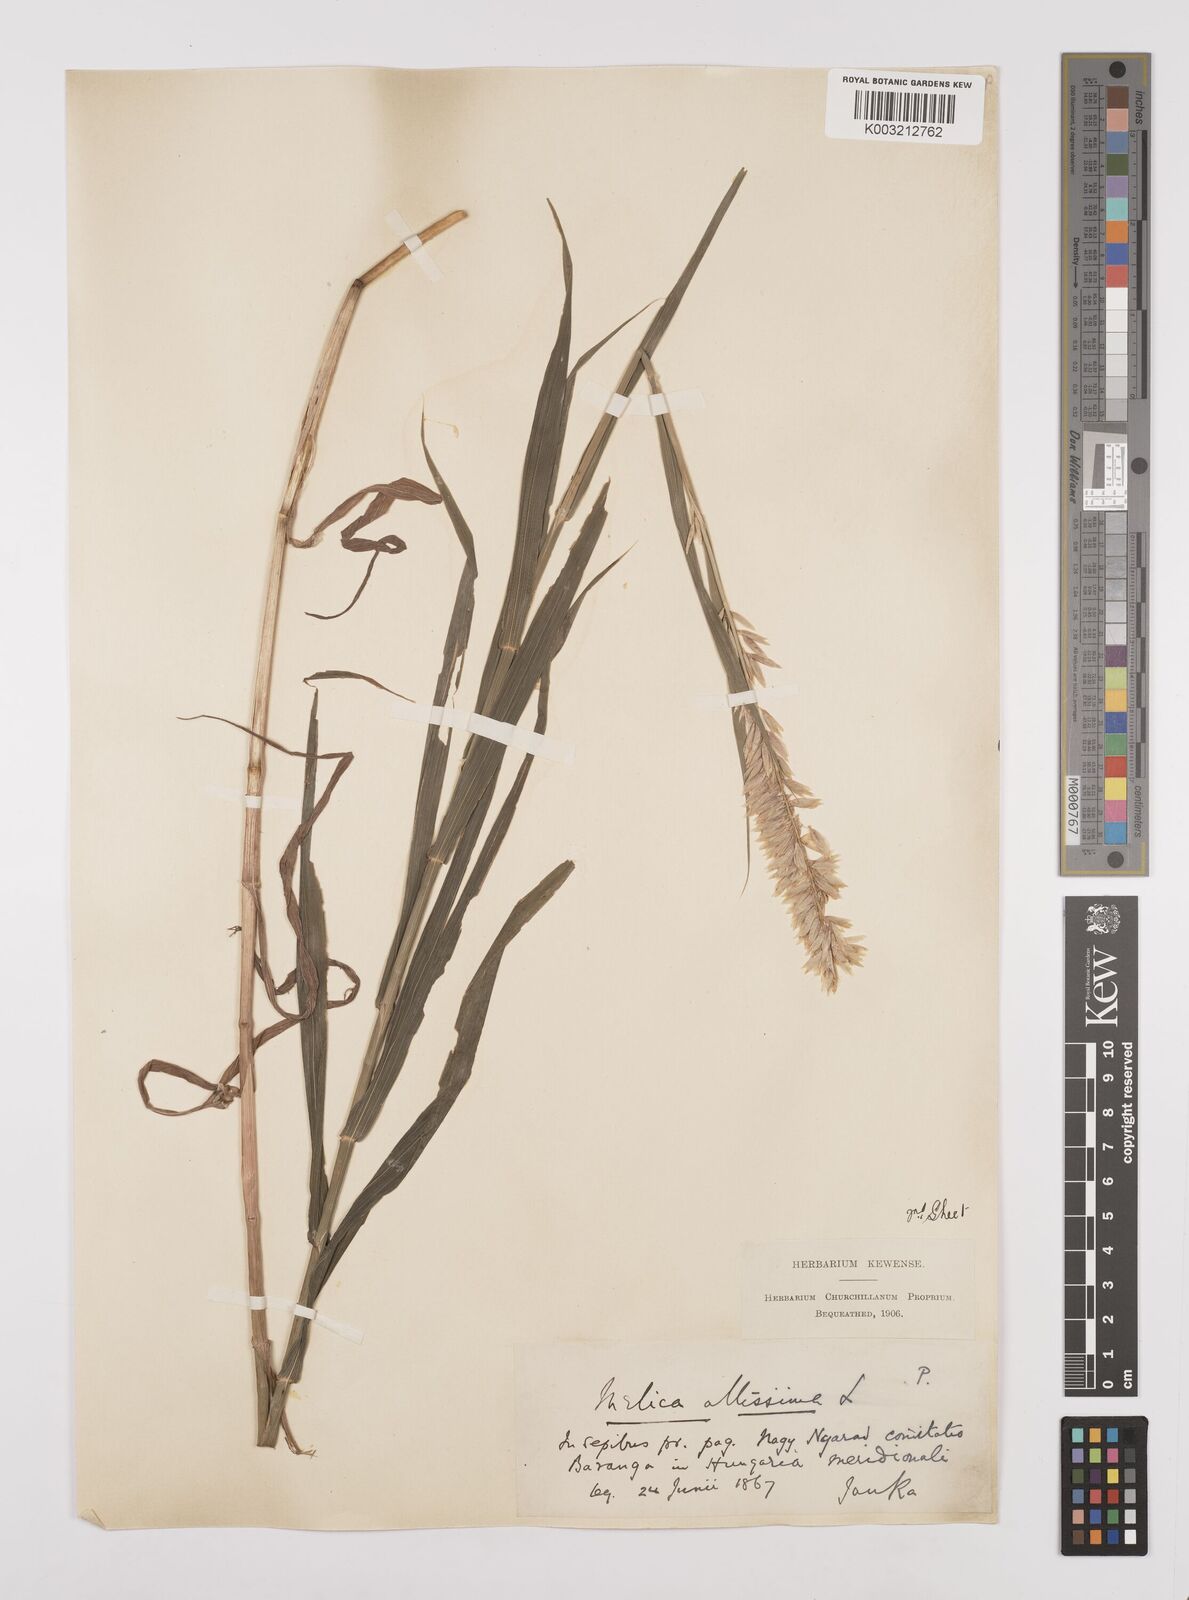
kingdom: Plantae
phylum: Tracheophyta
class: Liliopsida
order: Poales
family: Poaceae
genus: Melica
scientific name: Melica altissima
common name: Siberian melicgrass
